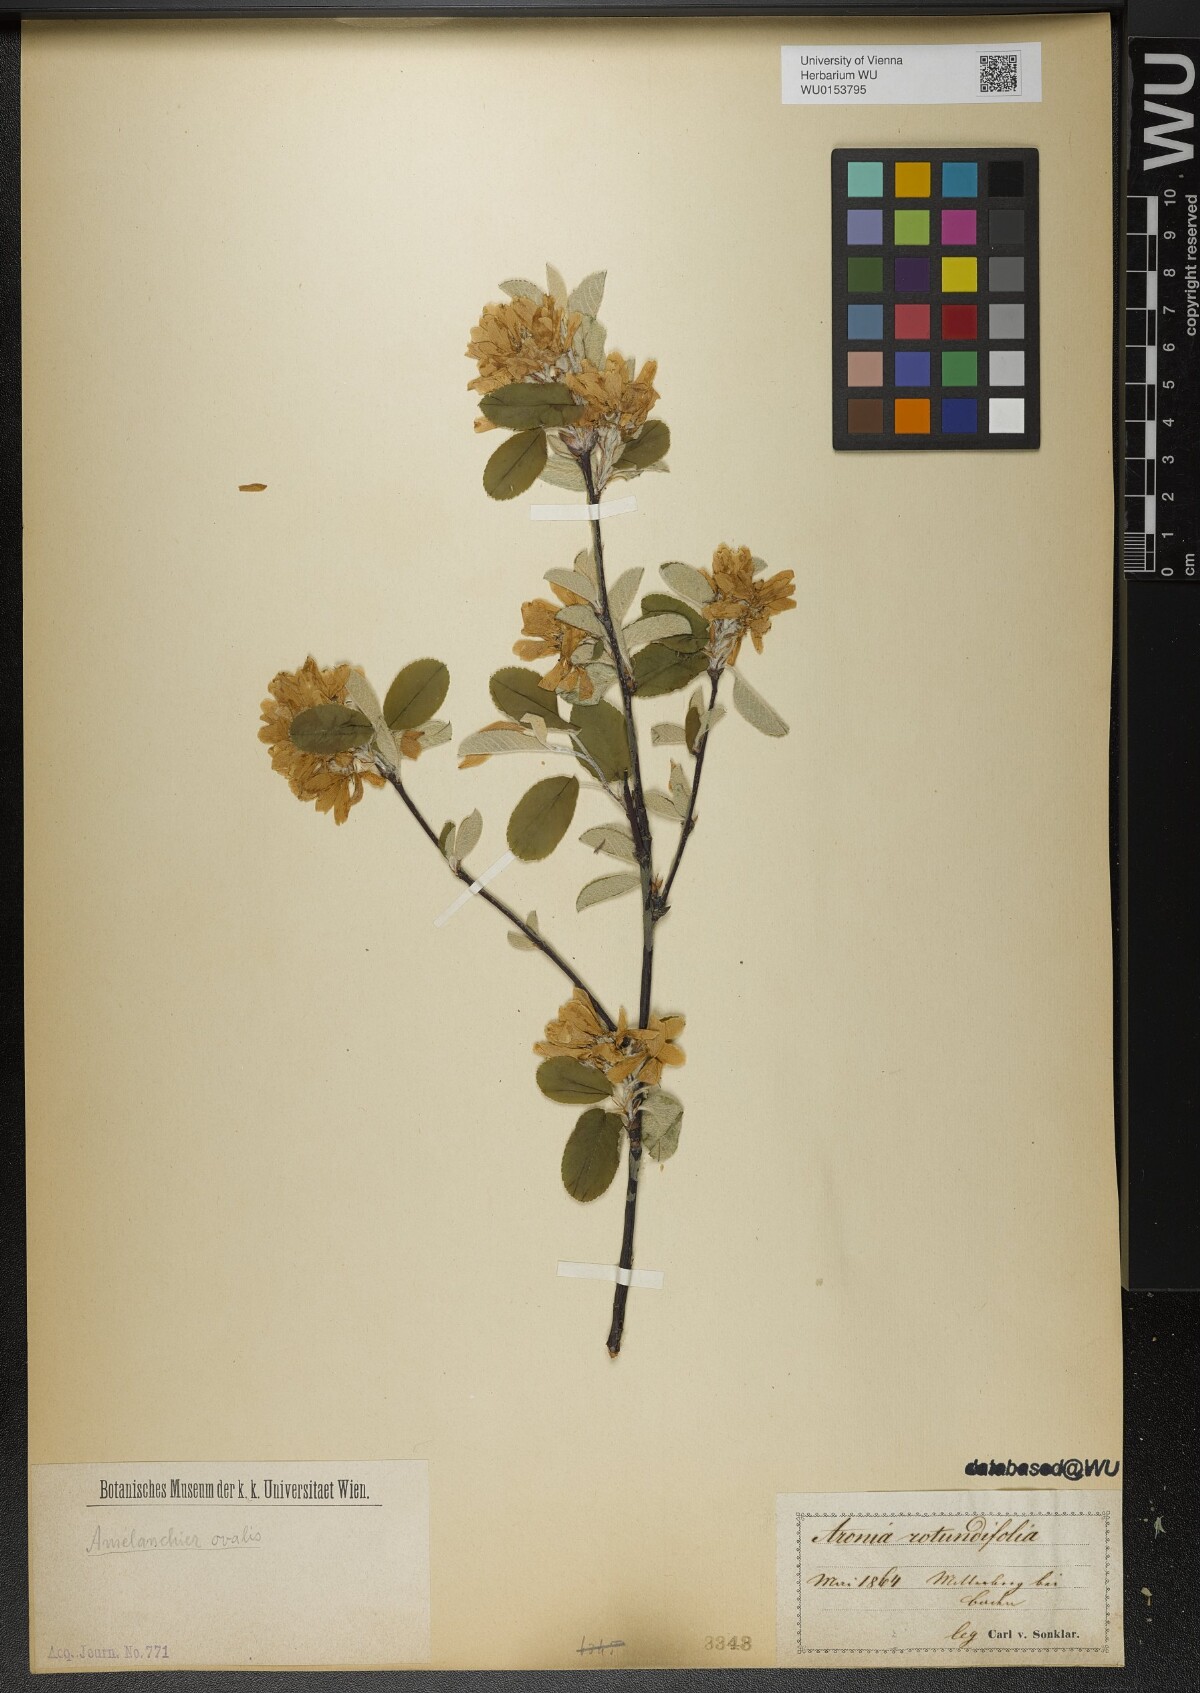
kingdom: Plantae
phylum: Tracheophyta
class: Magnoliopsida
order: Rosales
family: Rosaceae
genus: Amelanchier
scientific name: Amelanchier ovalis
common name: Serviceberry
